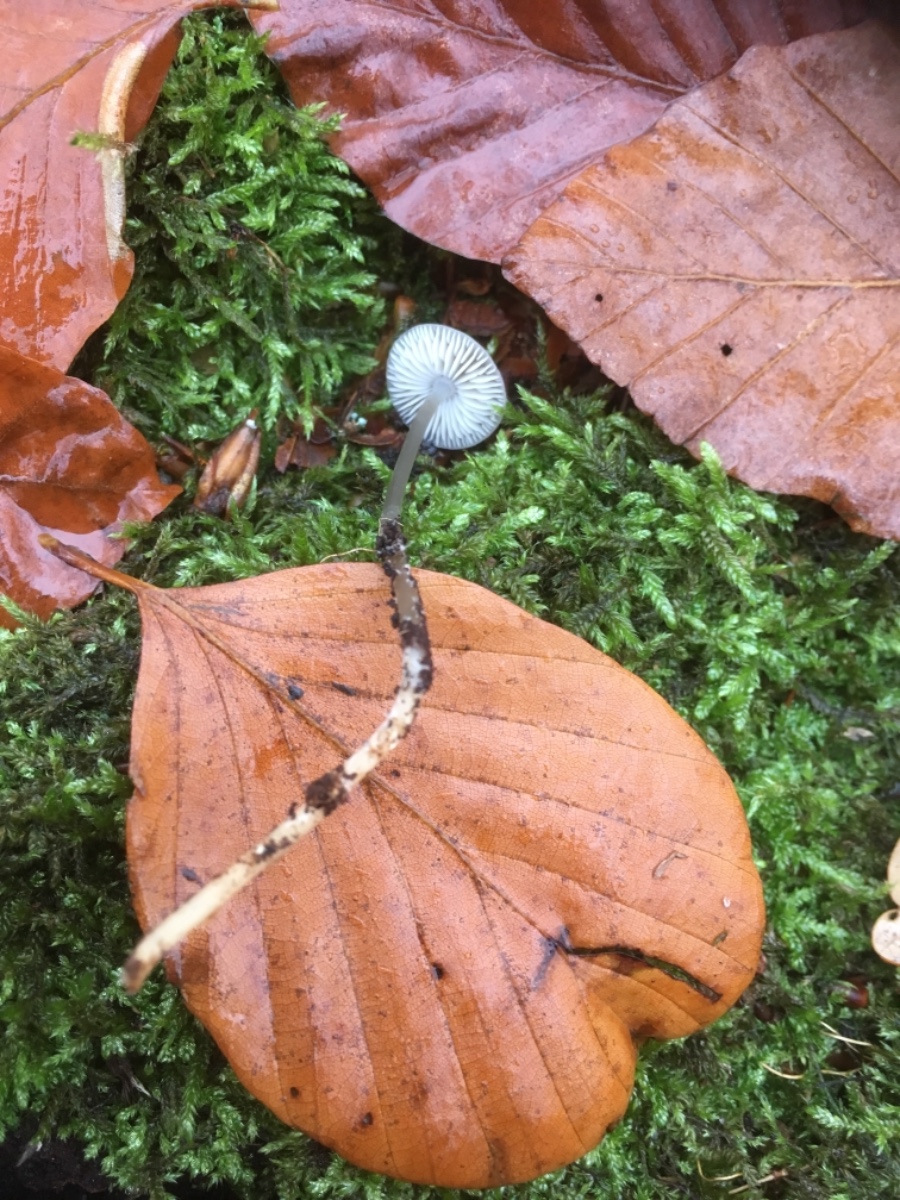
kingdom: Fungi
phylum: Basidiomycota
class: Agaricomycetes
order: Agaricales
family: Mycenaceae
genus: Mycena
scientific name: Mycena
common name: huesvamp
